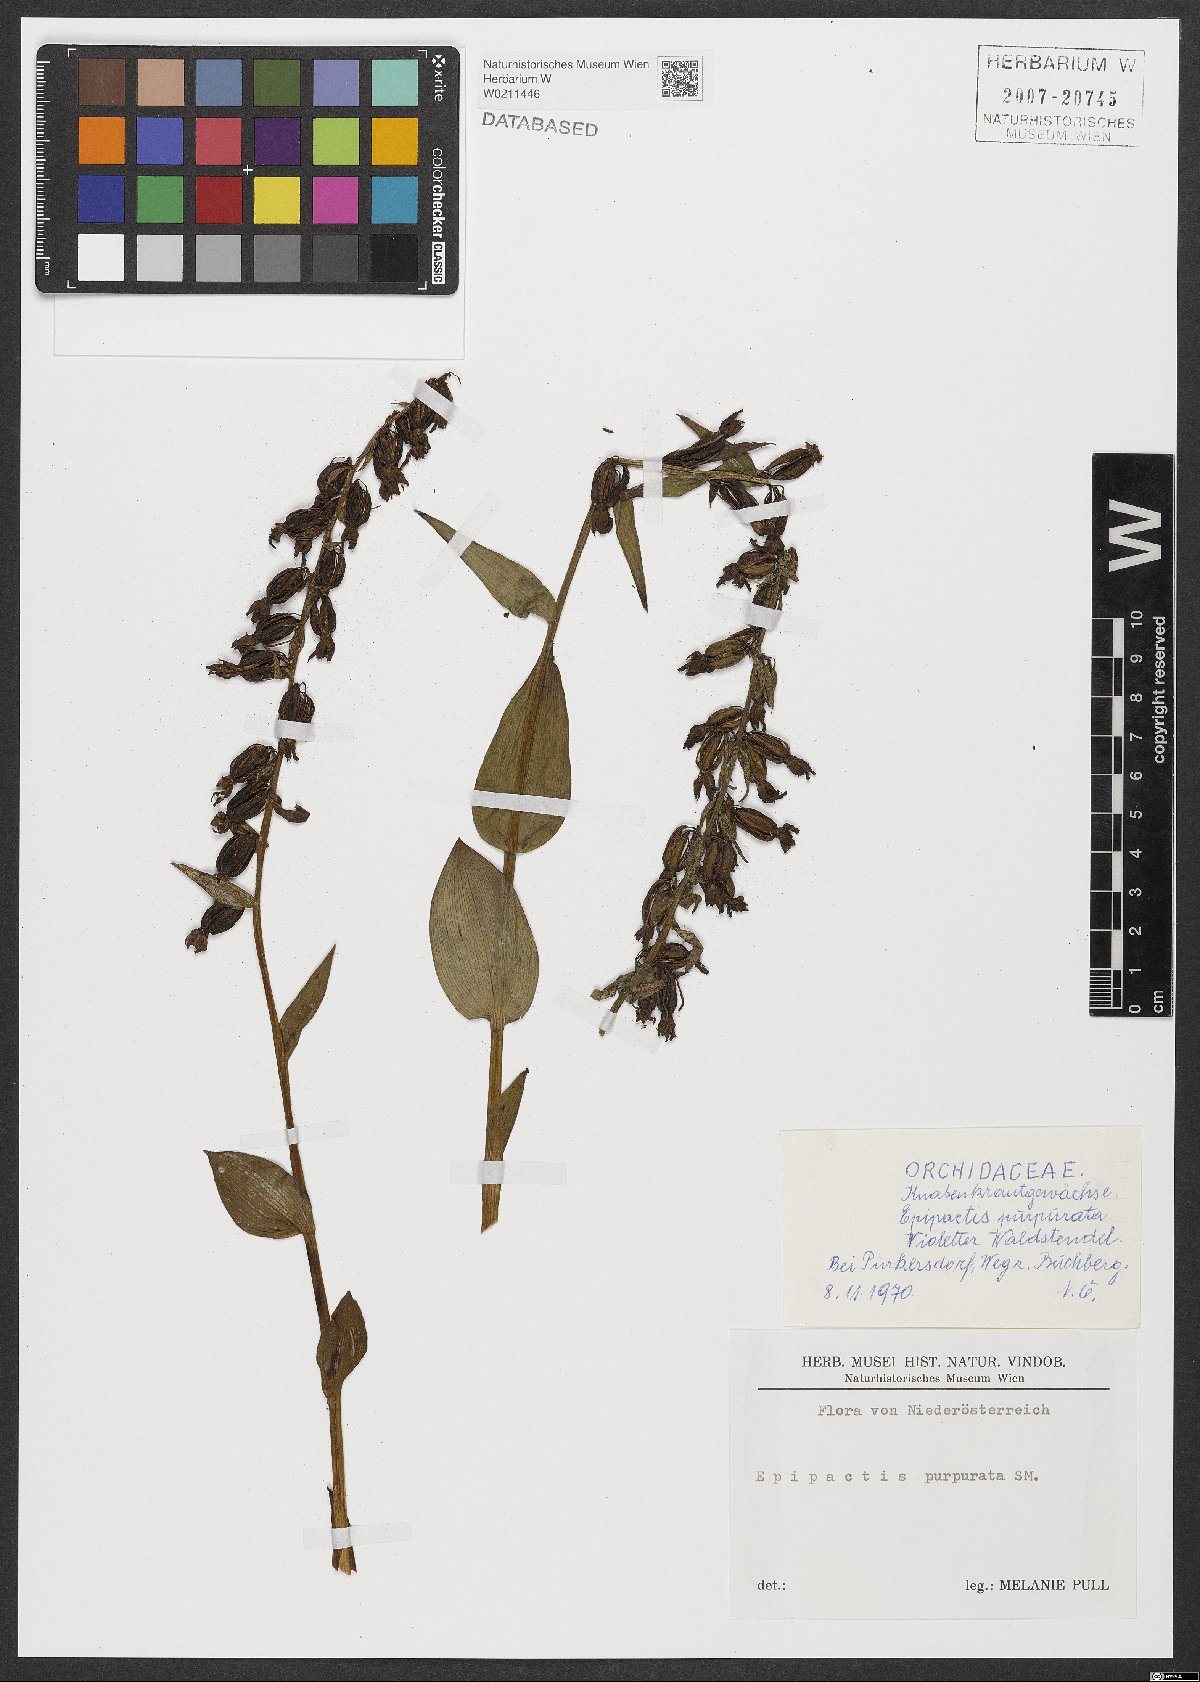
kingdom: Plantae
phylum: Tracheophyta
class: Liliopsida
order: Asparagales
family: Orchidaceae
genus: Epipactis
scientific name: Epipactis purpurata
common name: Violet helleborine
